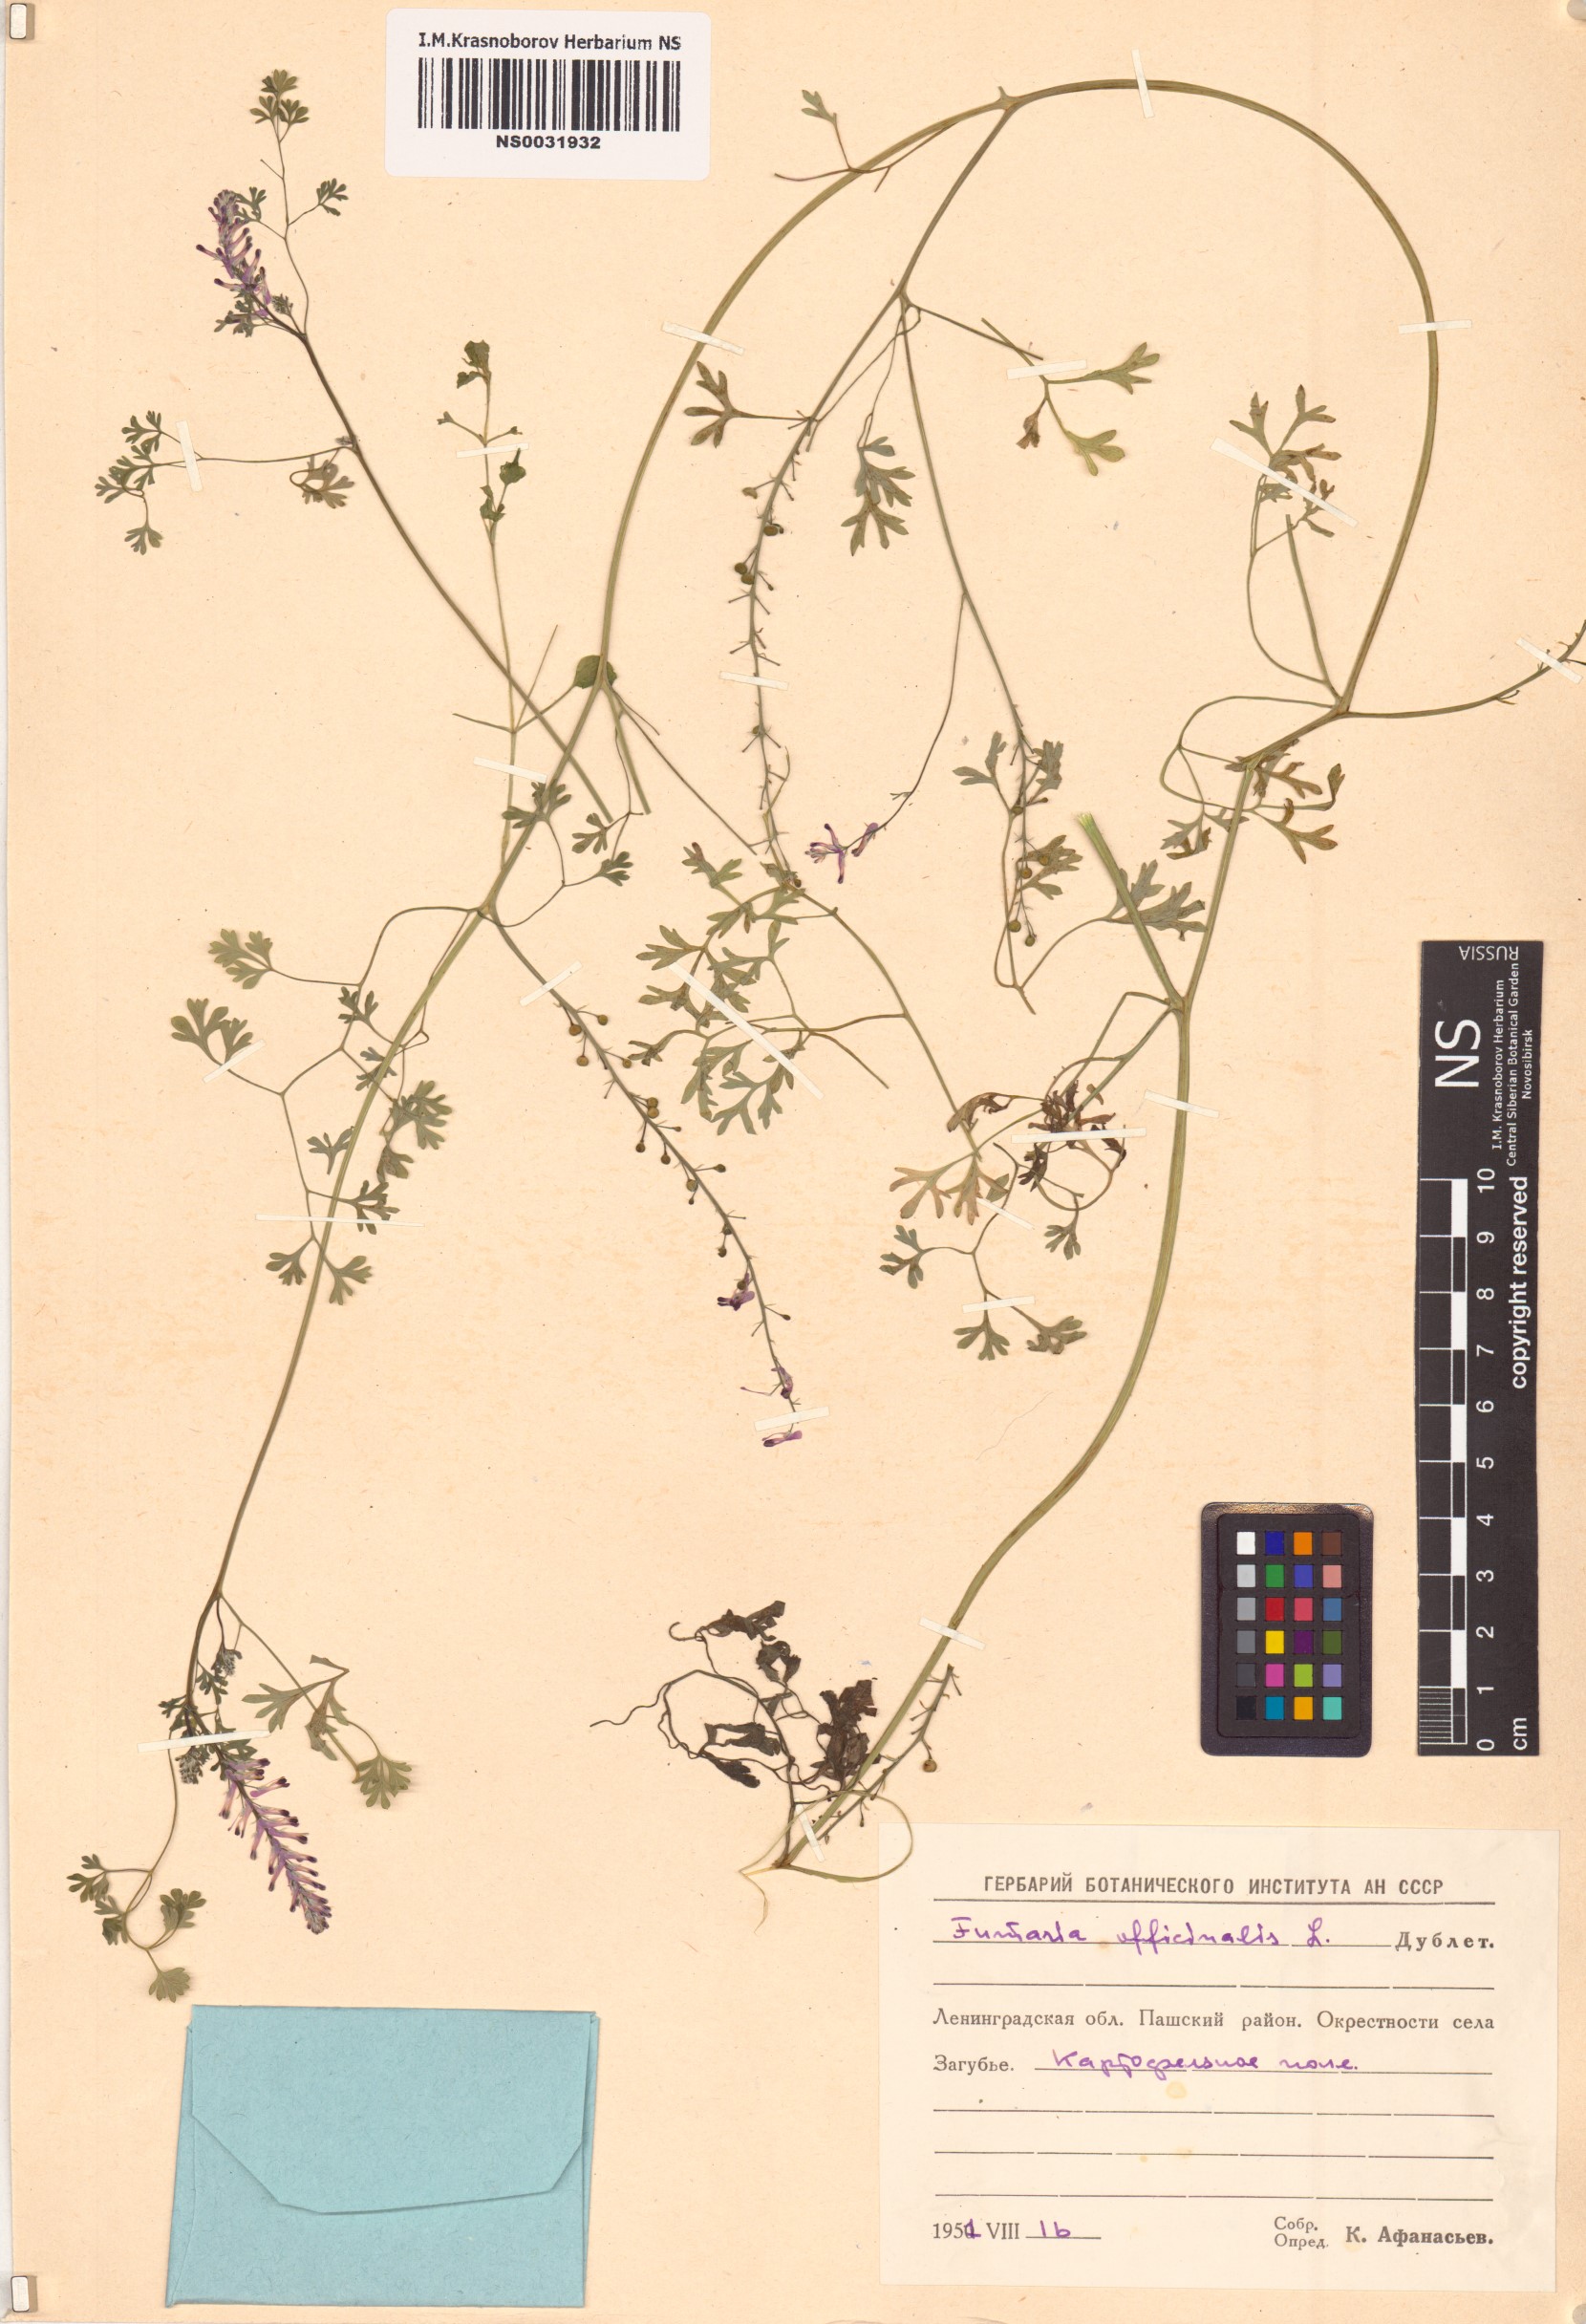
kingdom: Plantae
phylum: Tracheophyta
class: Magnoliopsida
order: Ranunculales
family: Papaveraceae
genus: Fumaria
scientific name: Fumaria officinalis
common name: Common fumitory
